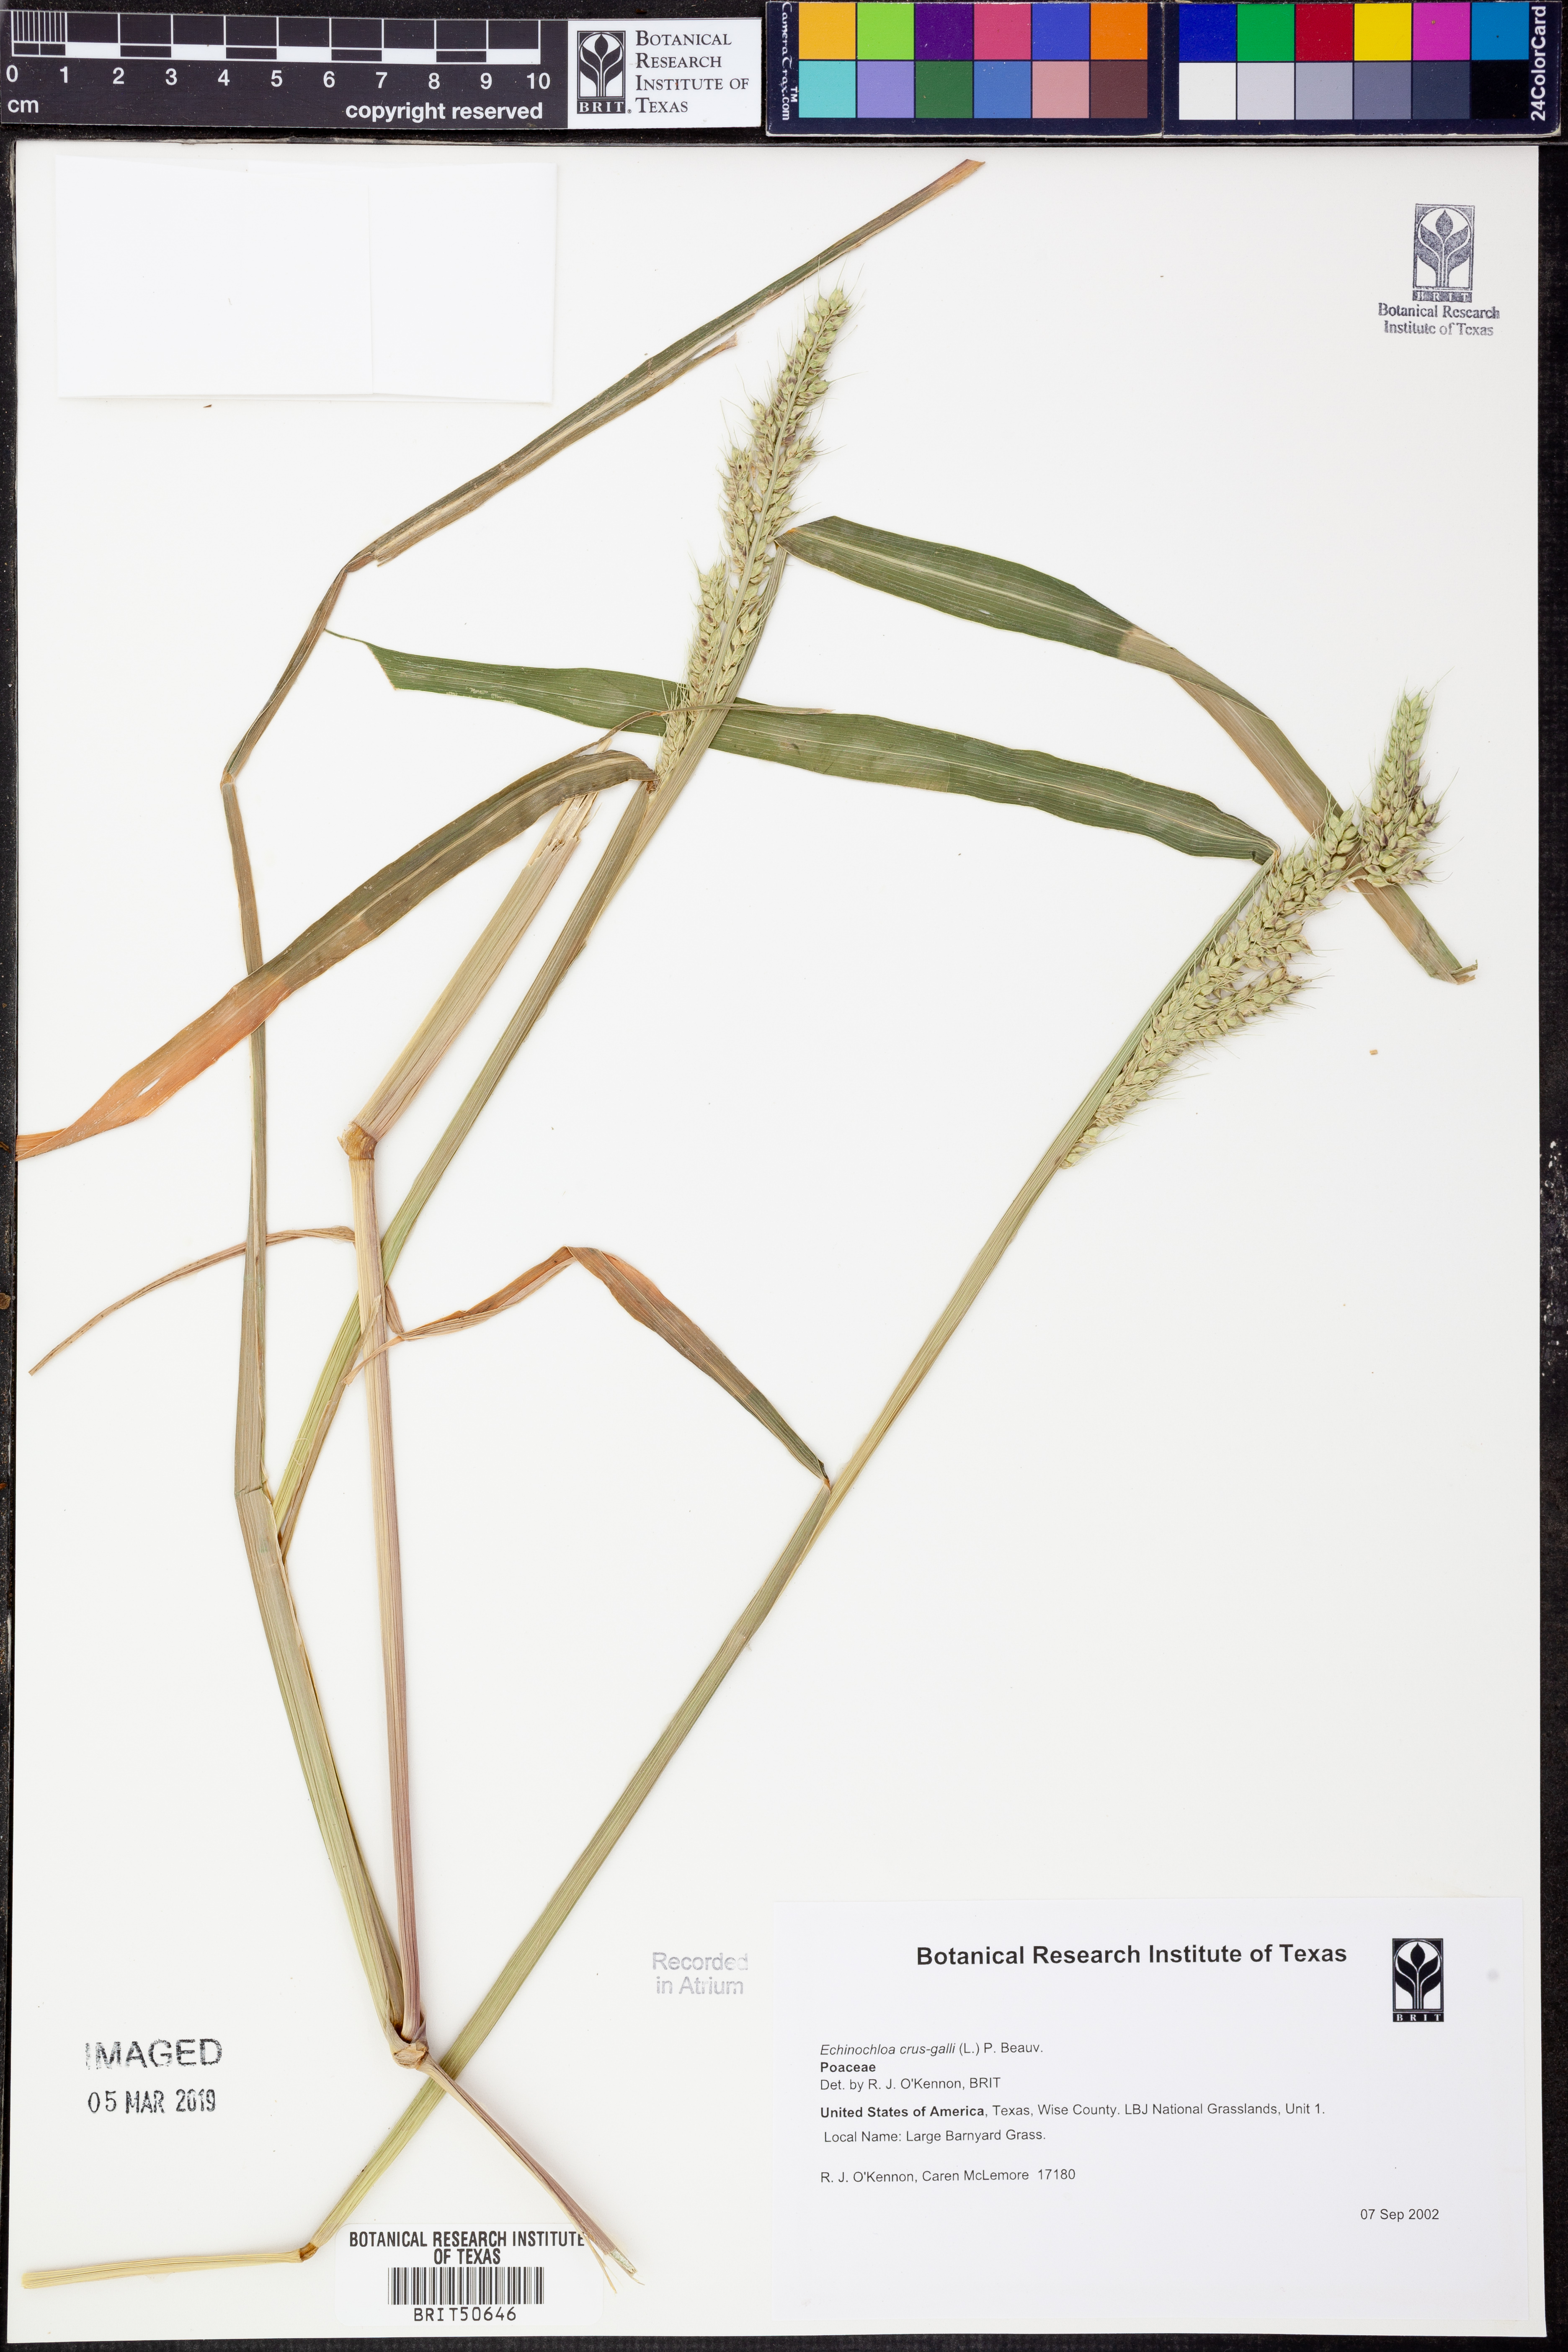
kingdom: Plantae
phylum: Tracheophyta
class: Liliopsida
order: Poales
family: Poaceae
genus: Echinochloa
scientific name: Echinochloa crus-galli
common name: Cockspur
